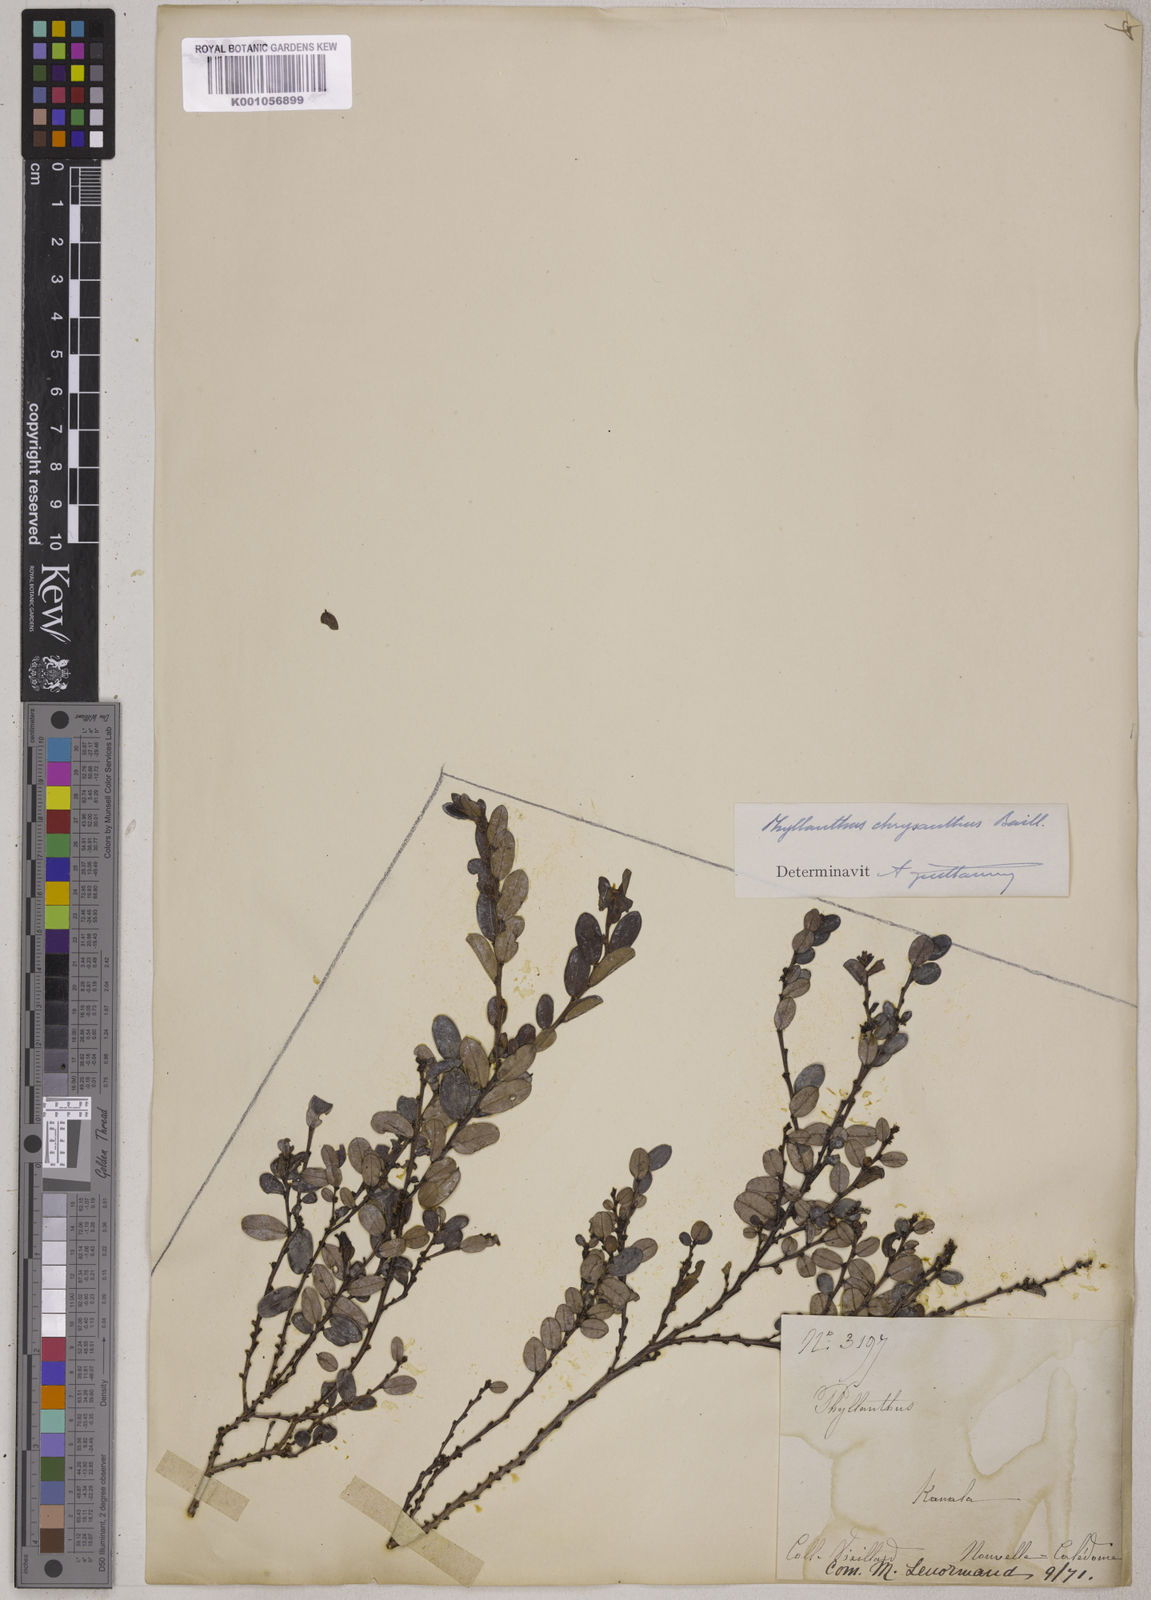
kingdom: Plantae
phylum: Tracheophyta
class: Magnoliopsida
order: Malpighiales
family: Phyllanthaceae
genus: Phyllanthus
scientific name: Phyllanthus chrysanthus
